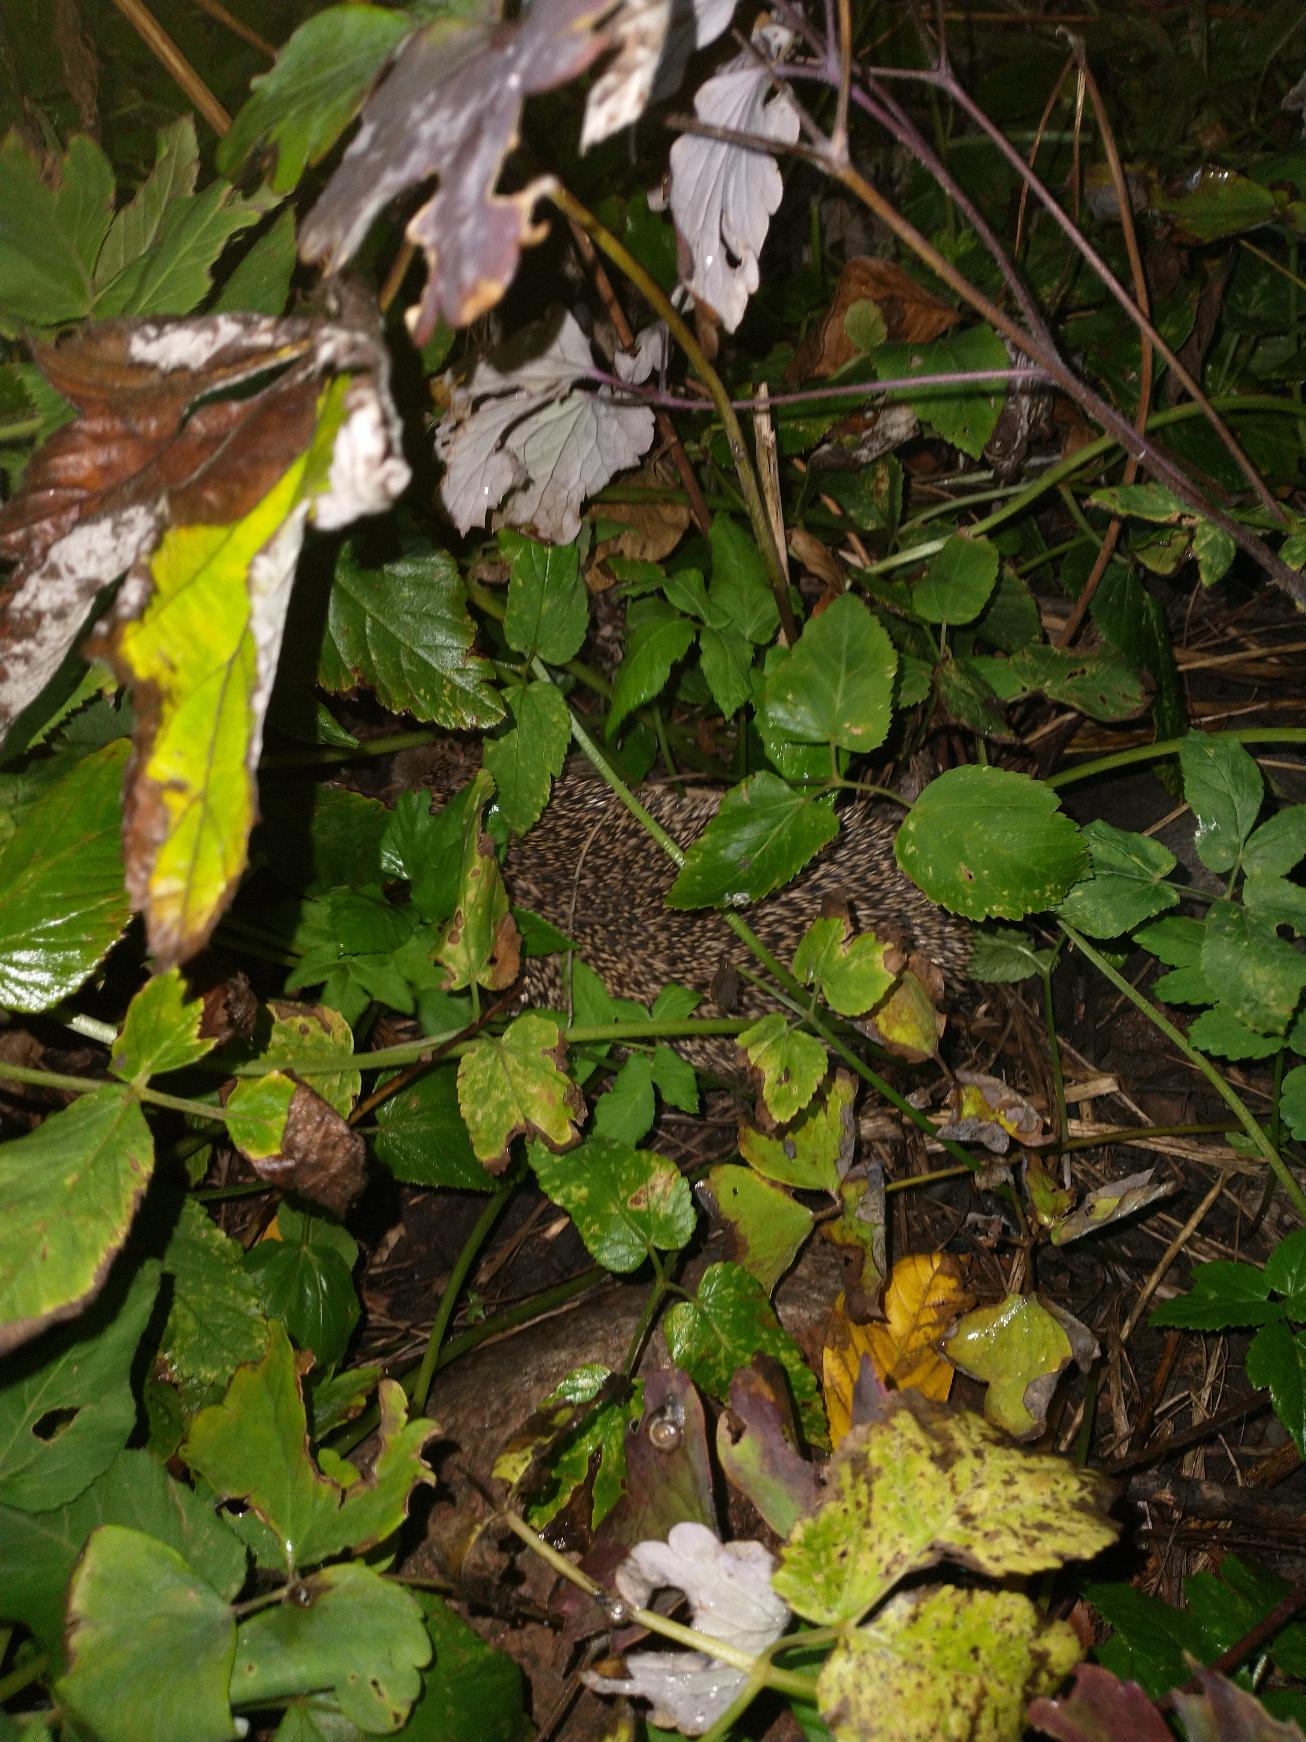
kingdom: Animalia
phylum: Chordata
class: Mammalia
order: Erinaceomorpha
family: Erinaceidae
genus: Erinaceus
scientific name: Erinaceus europaeus
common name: Pindsvin
